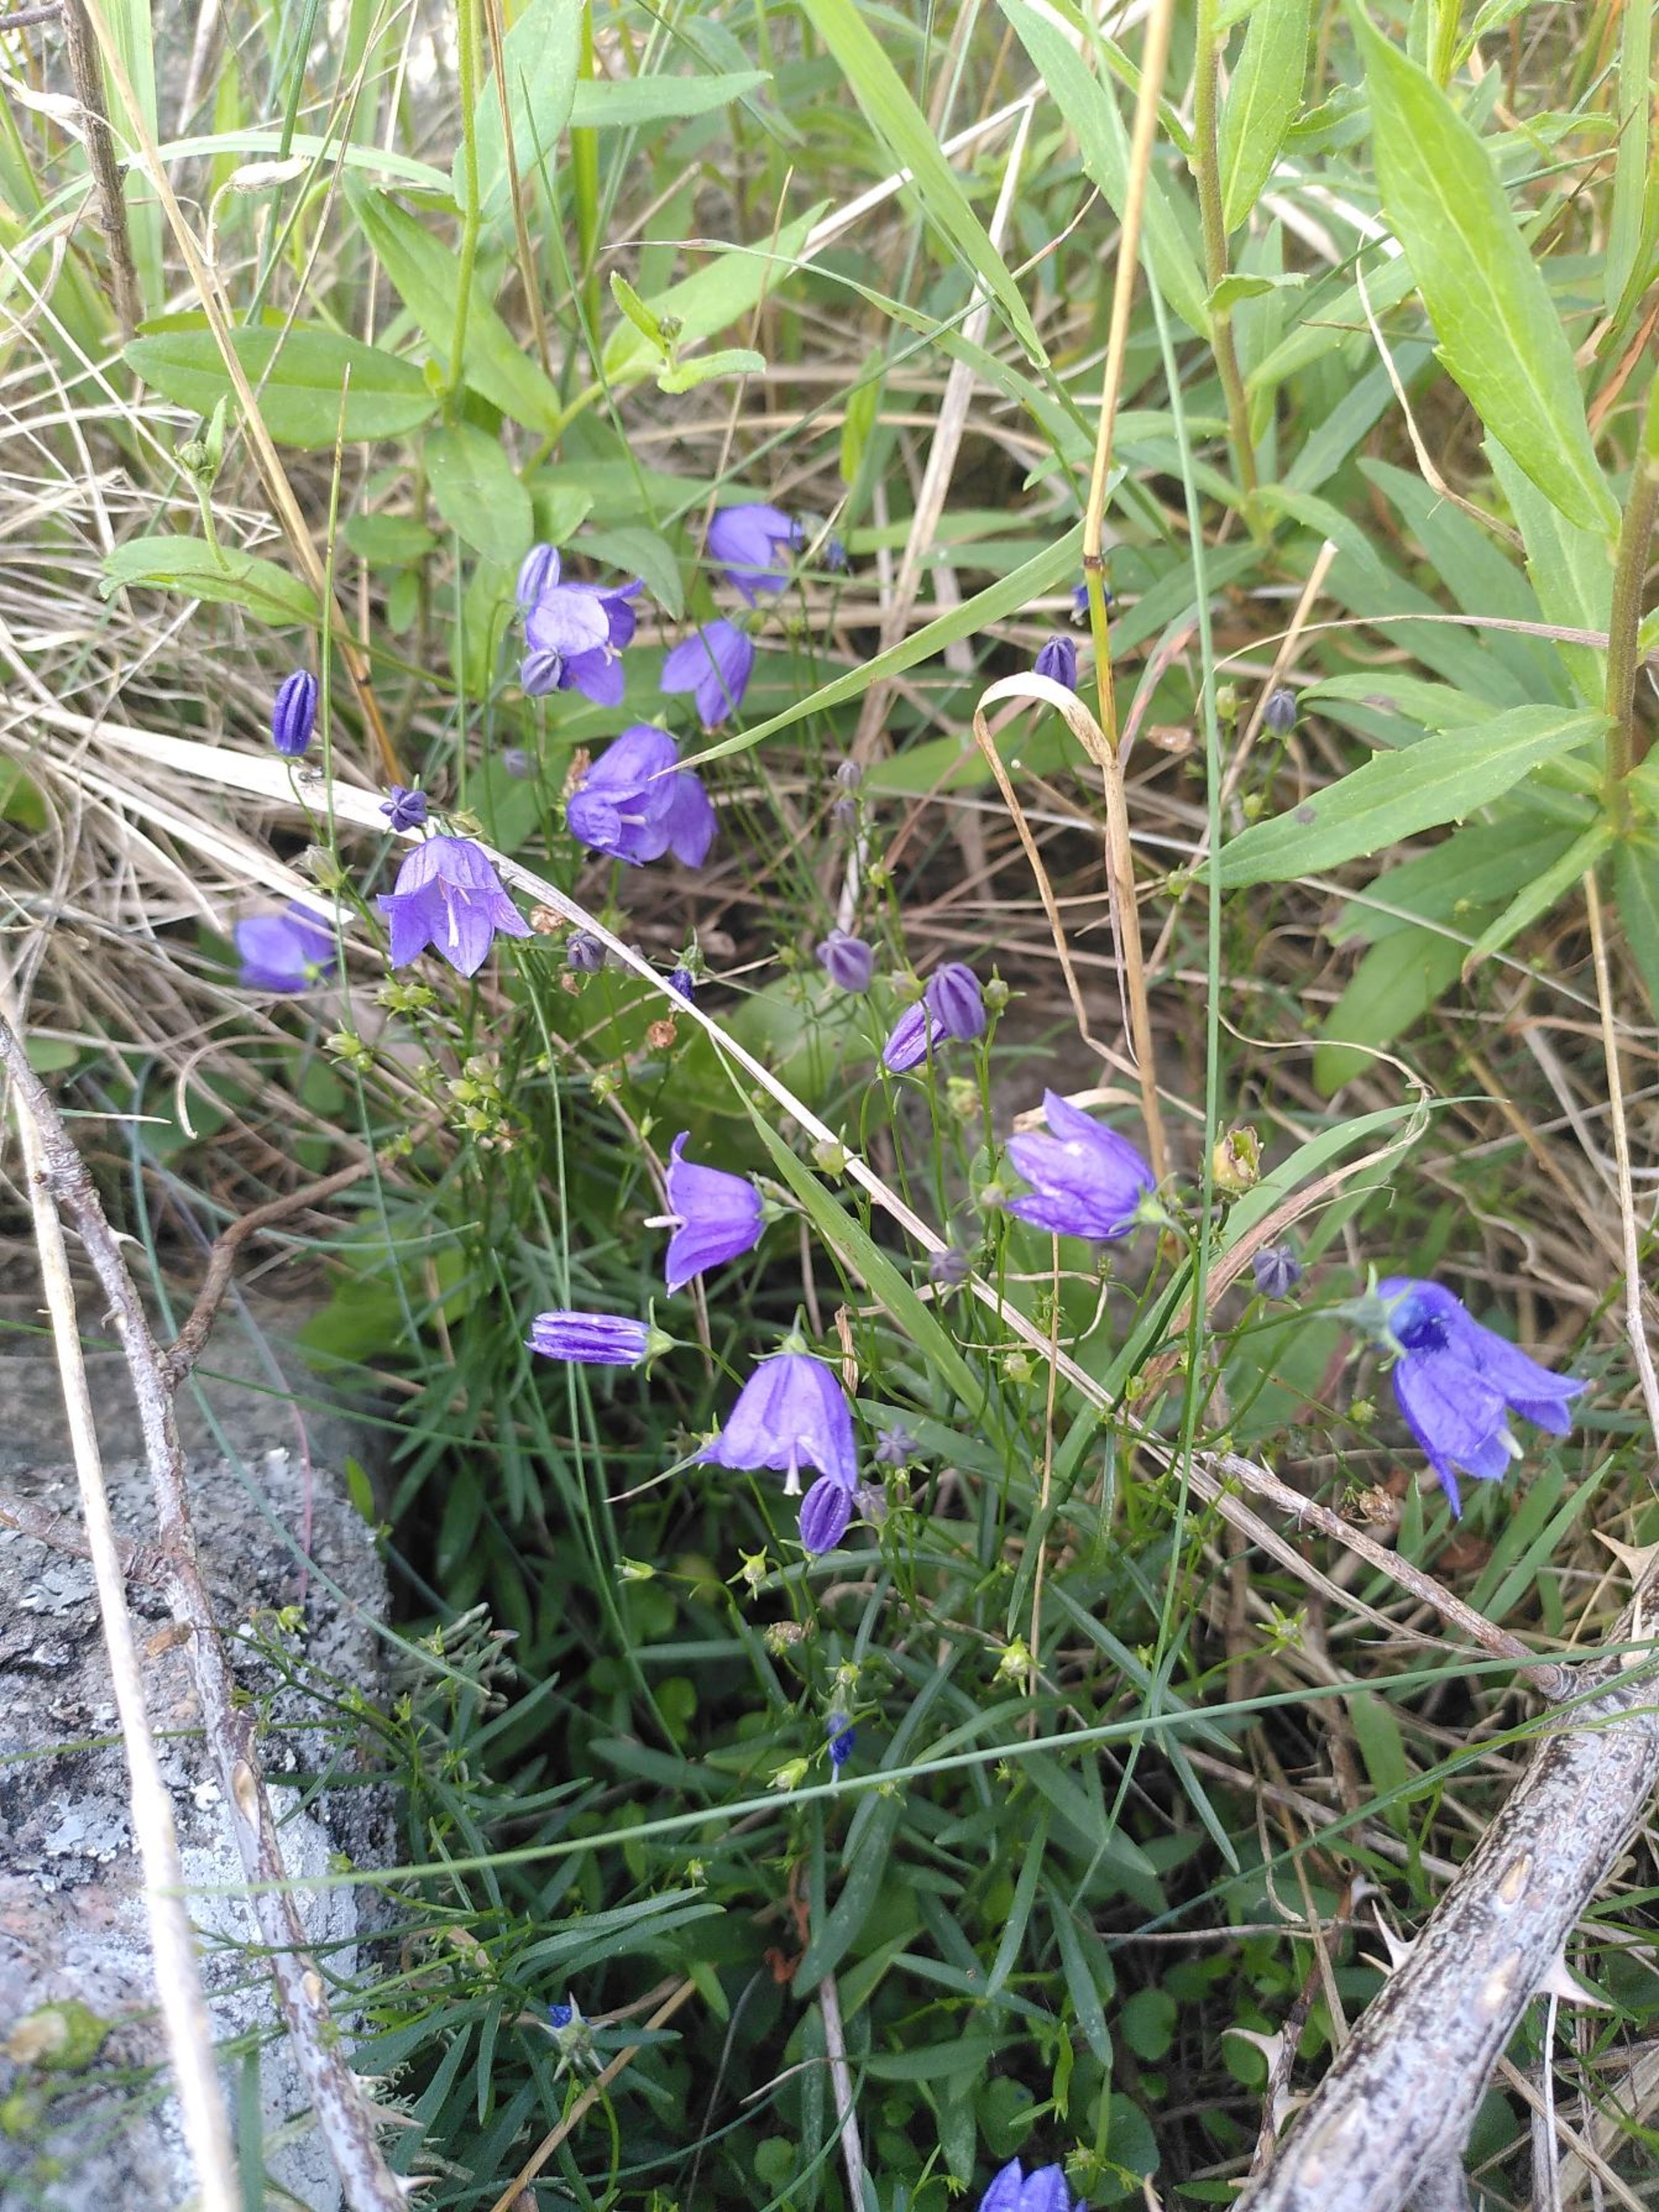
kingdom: Plantae
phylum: Tracheophyta
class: Magnoliopsida
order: Asterales
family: Campanulaceae
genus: Campanula
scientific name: Campanula rotundifolia
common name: Liden klokke
